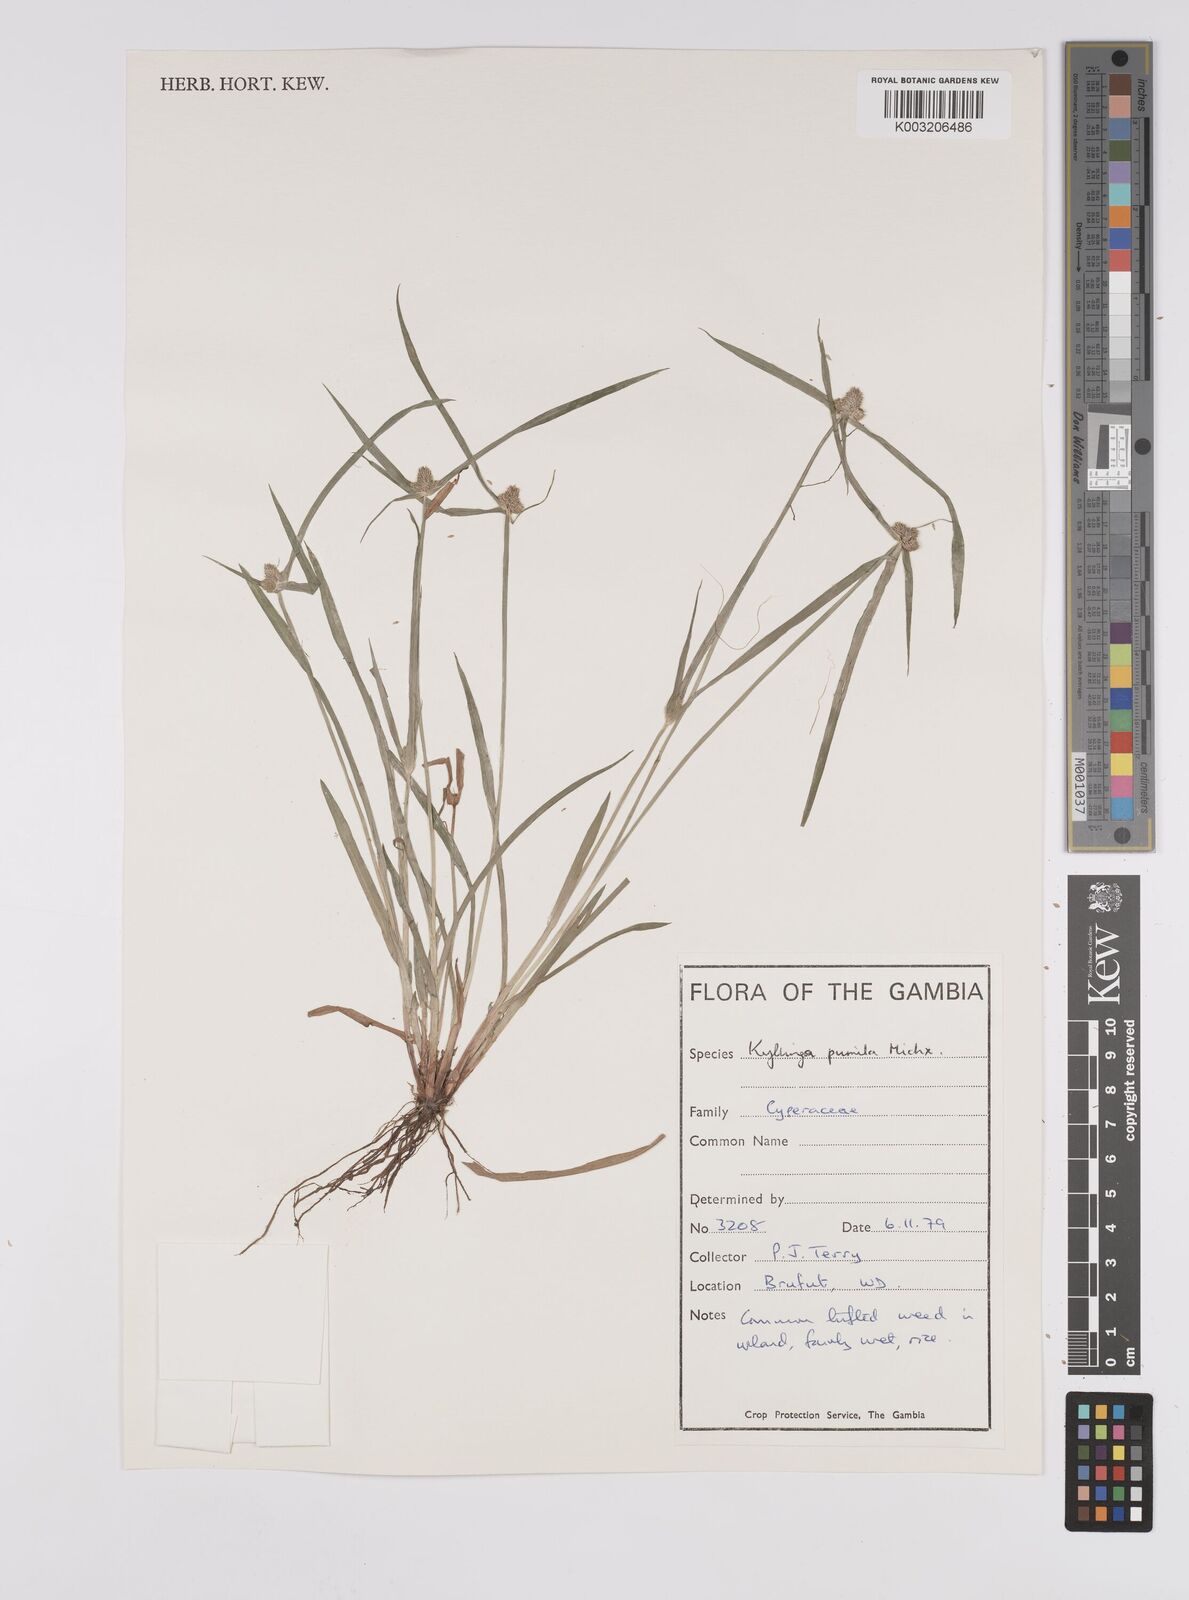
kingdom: Plantae
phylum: Tracheophyta
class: Liliopsida
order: Poales
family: Cyperaceae
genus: Cyperus
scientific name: Cyperus
